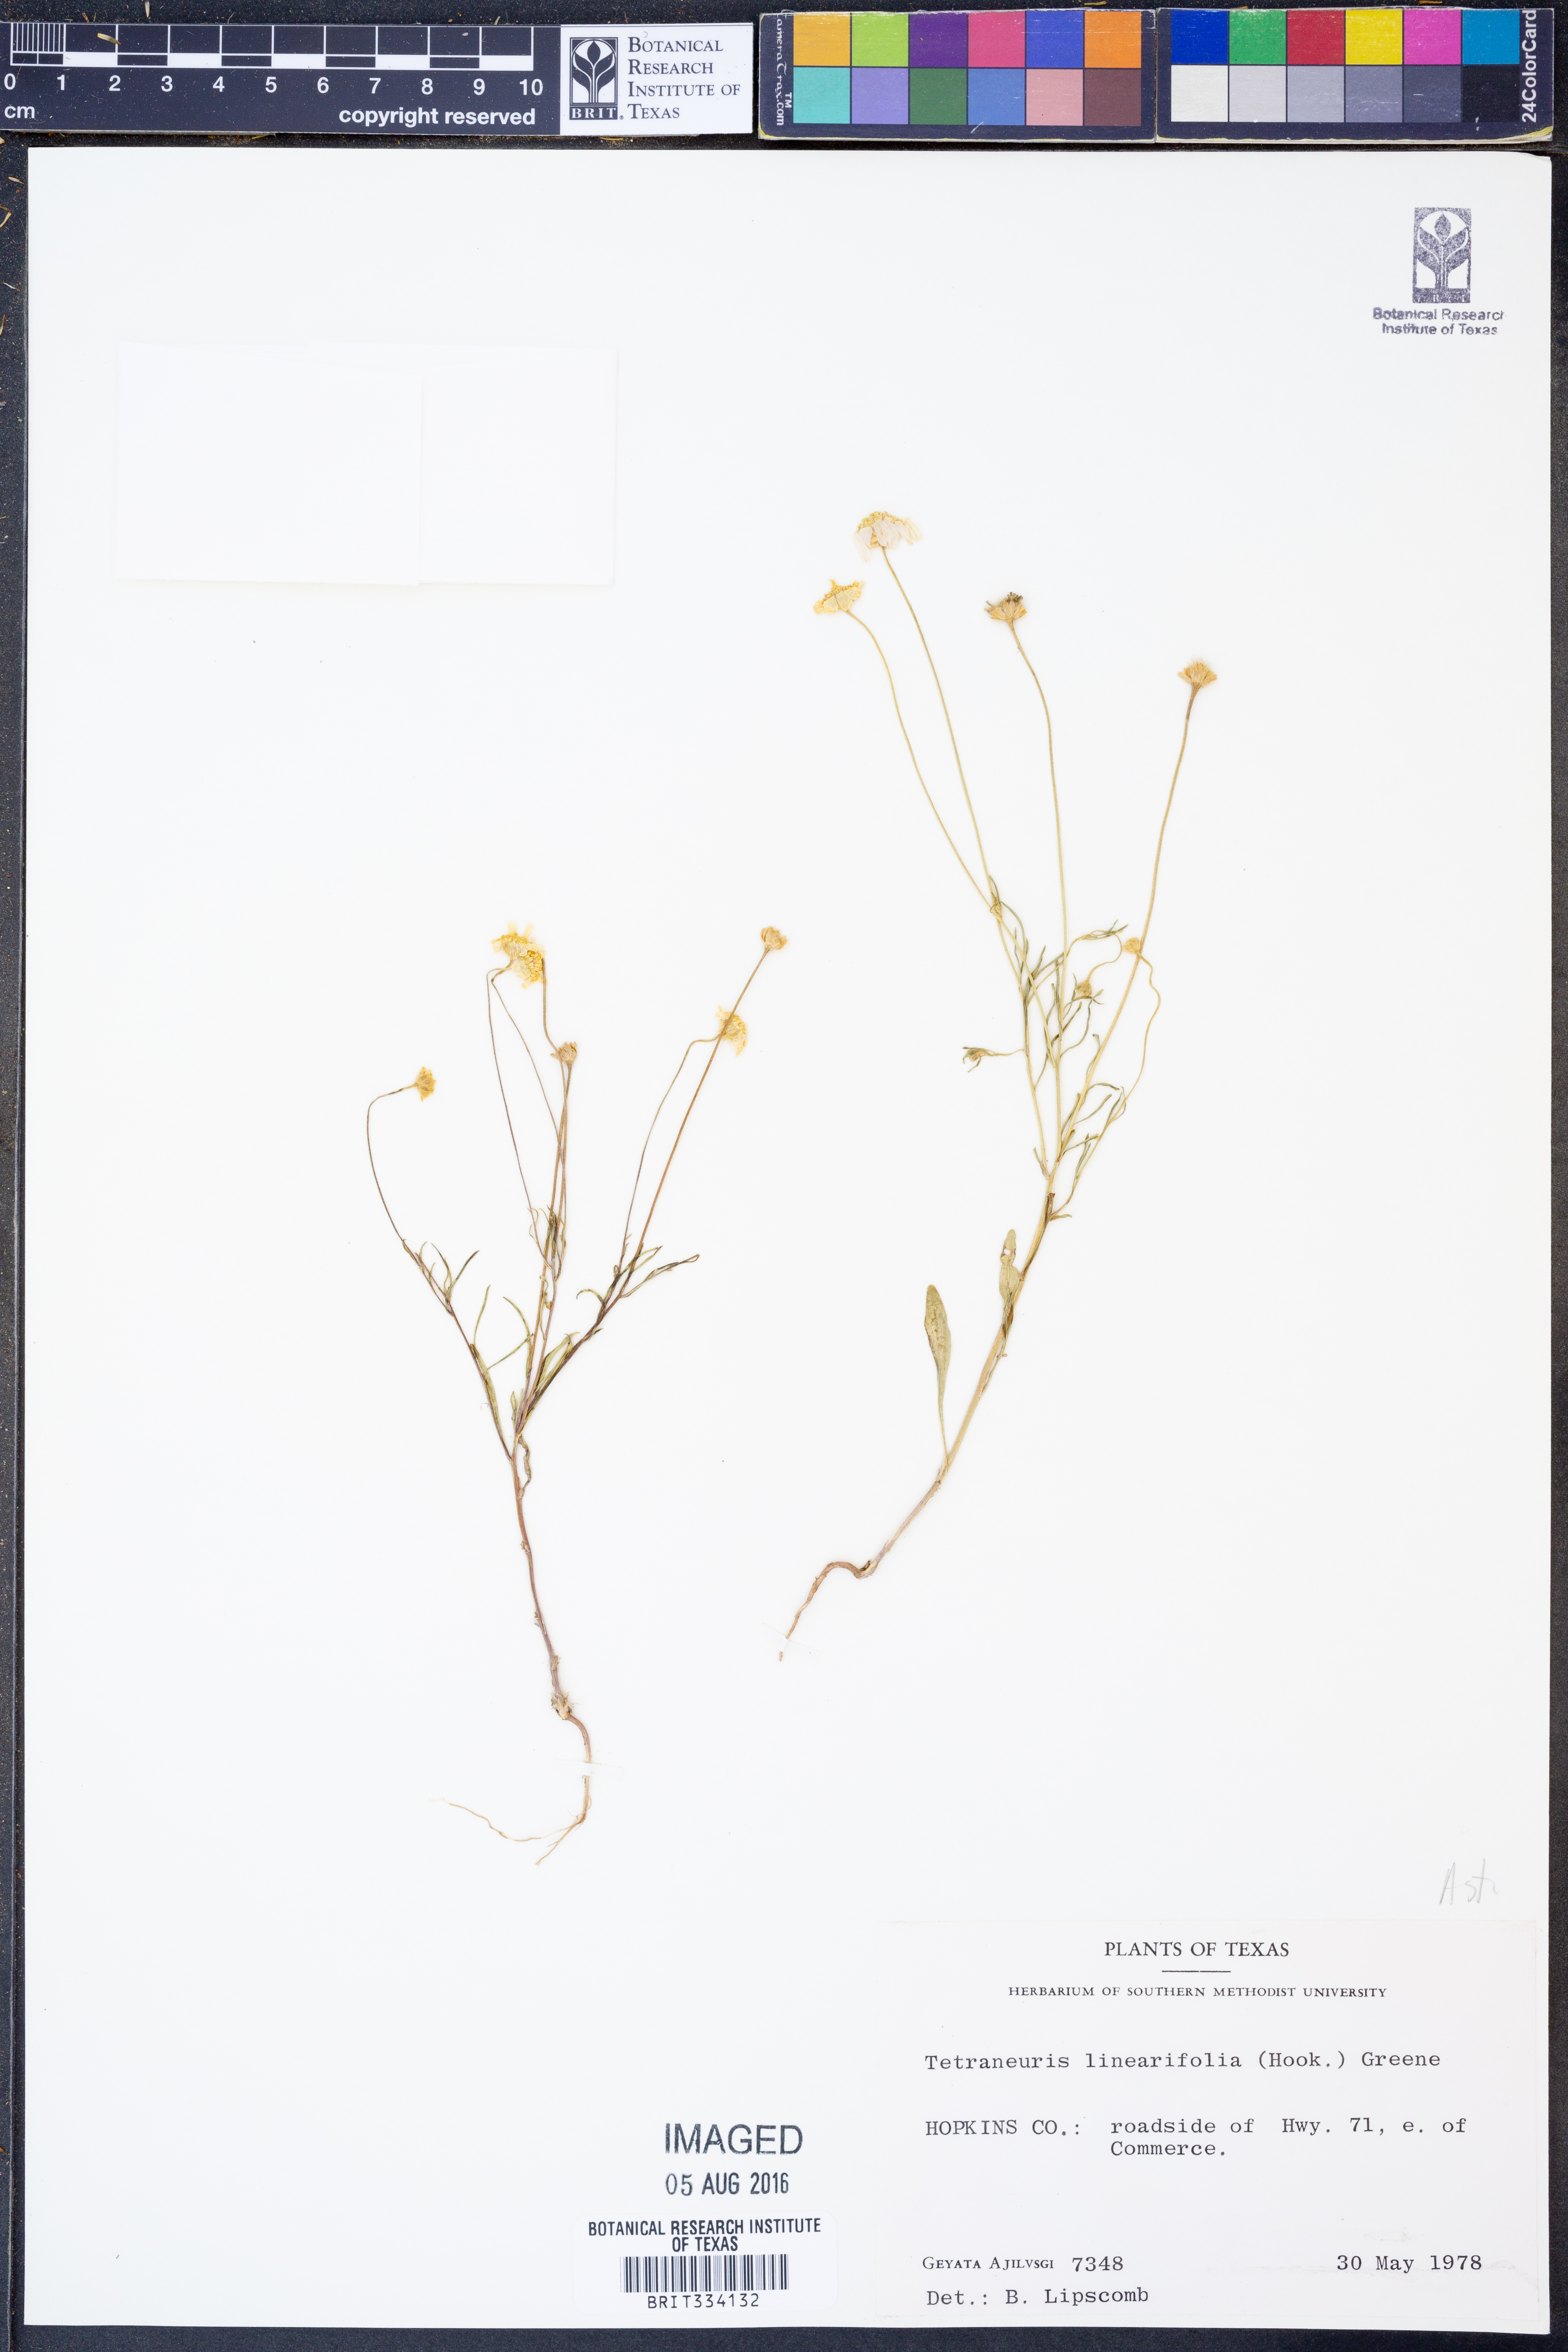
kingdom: Plantae
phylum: Tracheophyta
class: Magnoliopsida
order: Asterales
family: Asteraceae
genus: Tetraneuris
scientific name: Tetraneuris linearifolia
